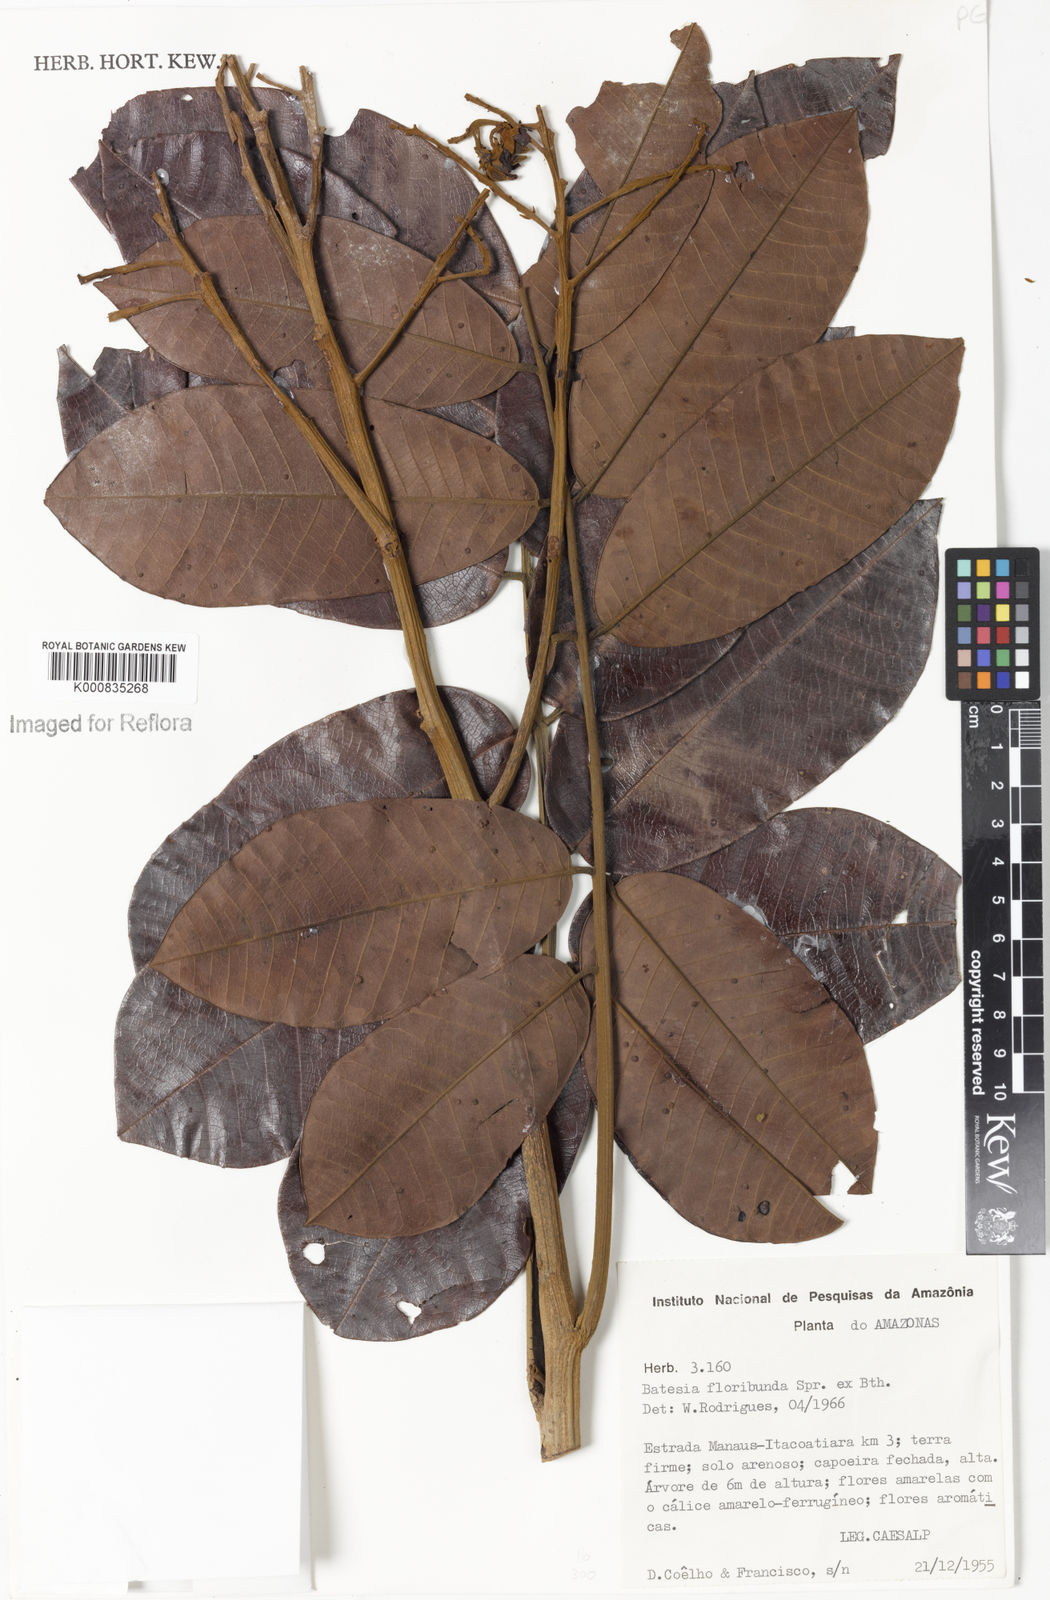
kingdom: Plantae
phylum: Tracheophyta
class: Magnoliopsida
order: Fabales
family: Fabaceae
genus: Batesia
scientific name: Batesia floribunda
